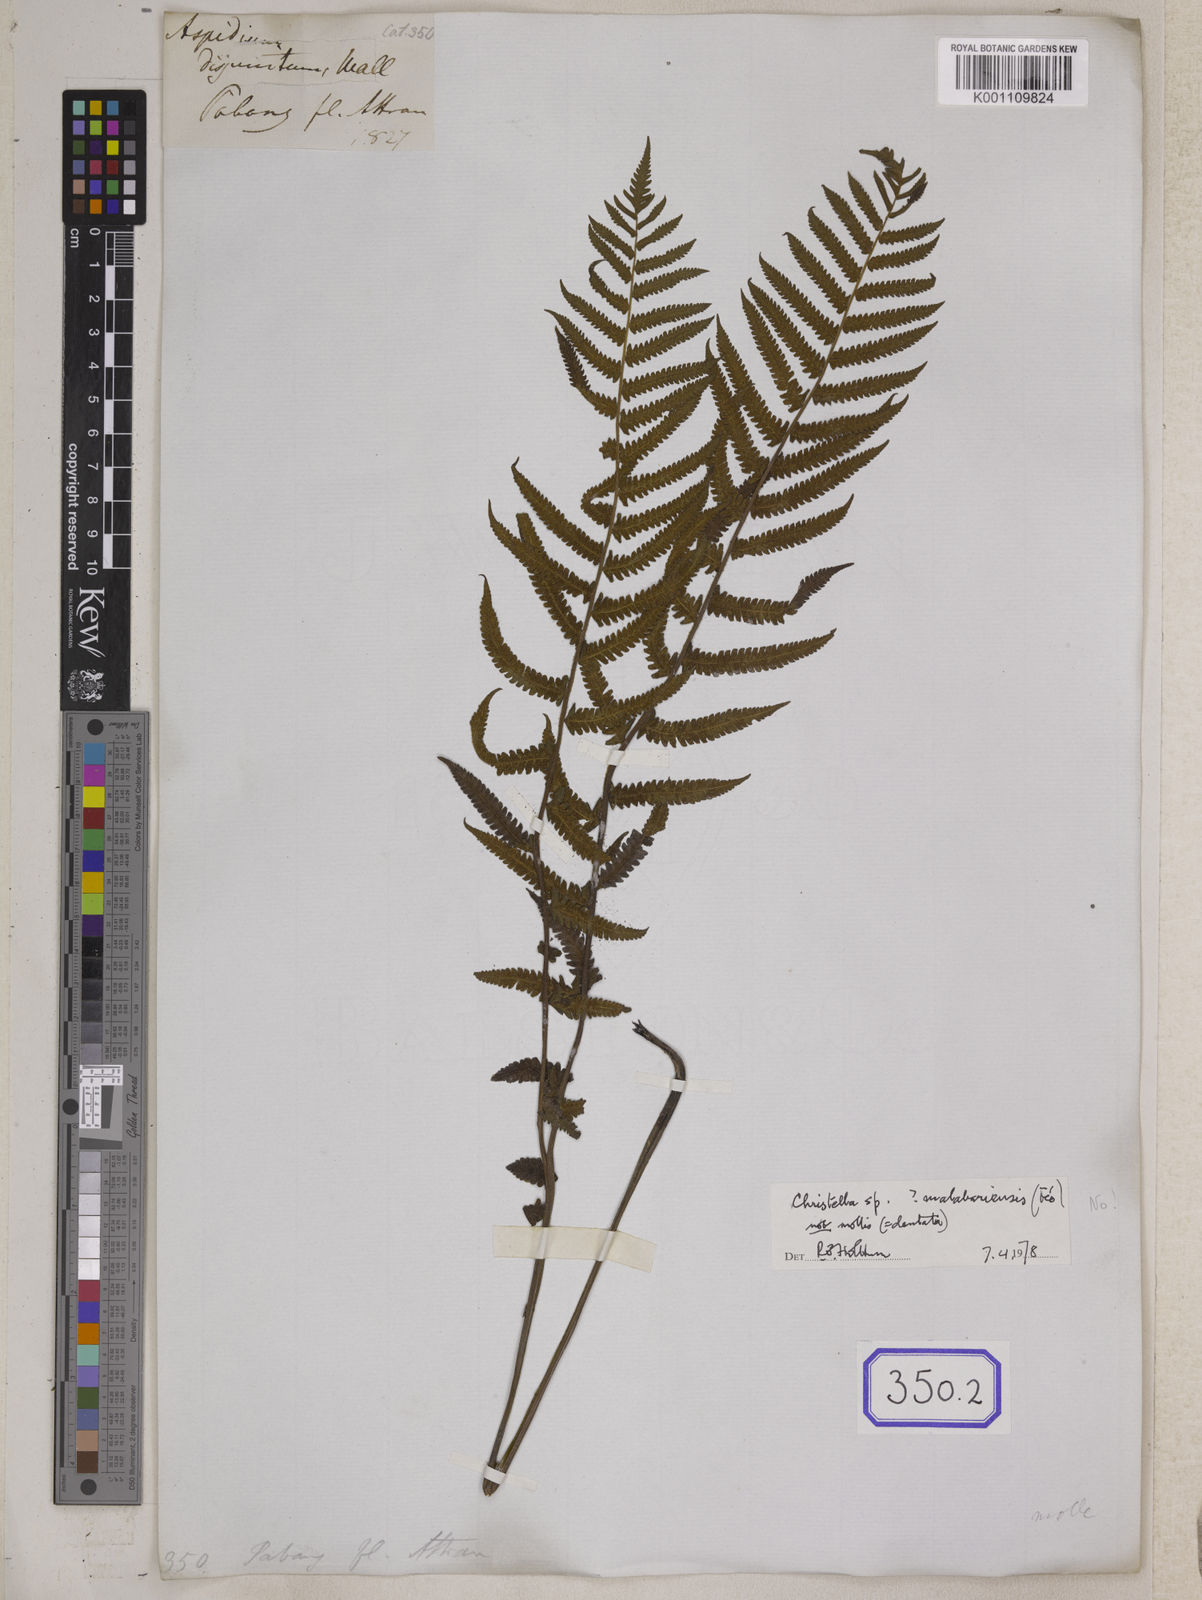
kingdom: Plantae
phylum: Tracheophyta
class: Polypodiopsida
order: Polypodiales
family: Thelypteridaceae
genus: Christella
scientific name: Christella parasitica
